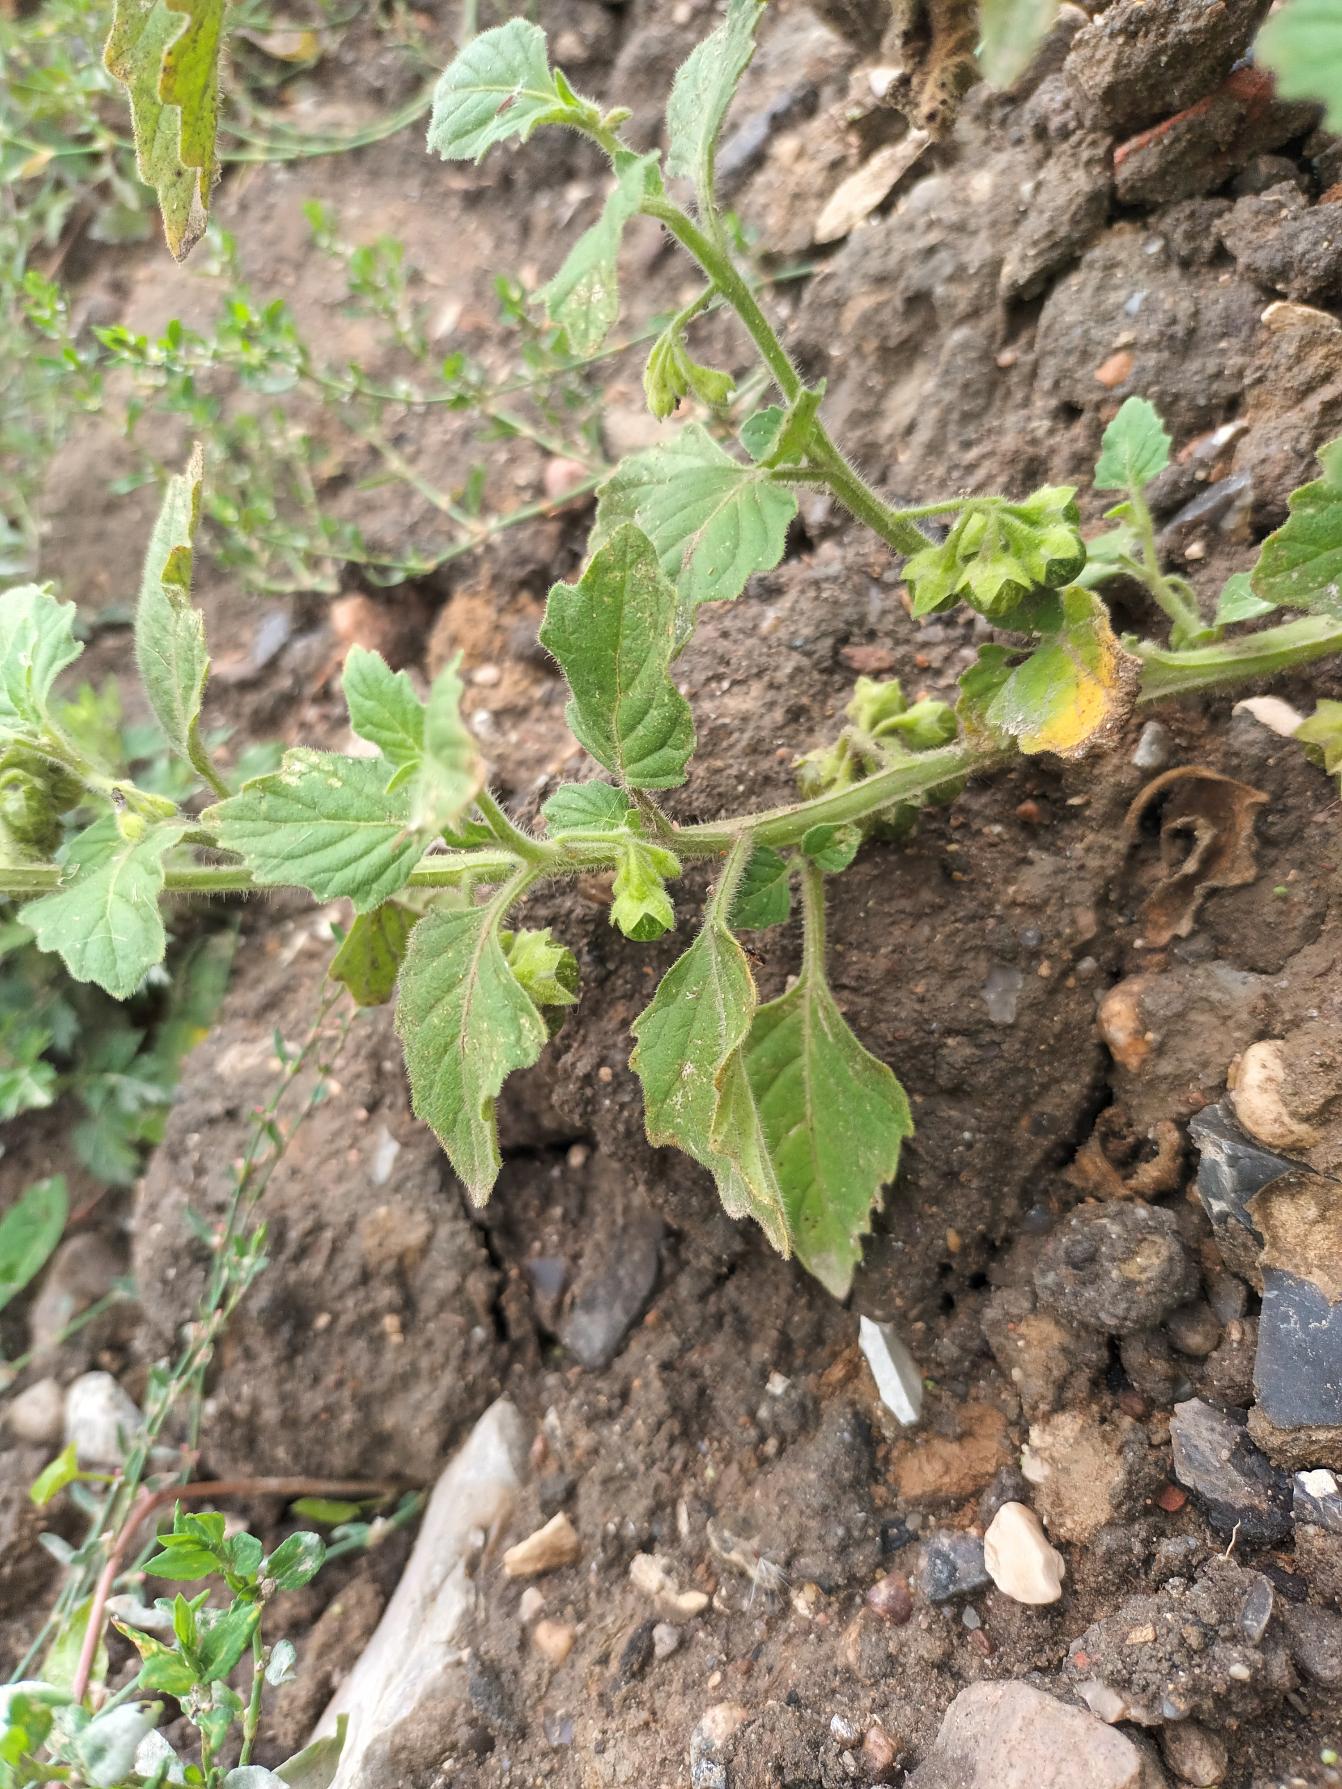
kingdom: Plantae
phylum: Tracheophyta
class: Magnoliopsida
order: Solanales
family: Solanaceae
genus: Solanum
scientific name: Solanum physalifolium
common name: Storbægret natskygge
